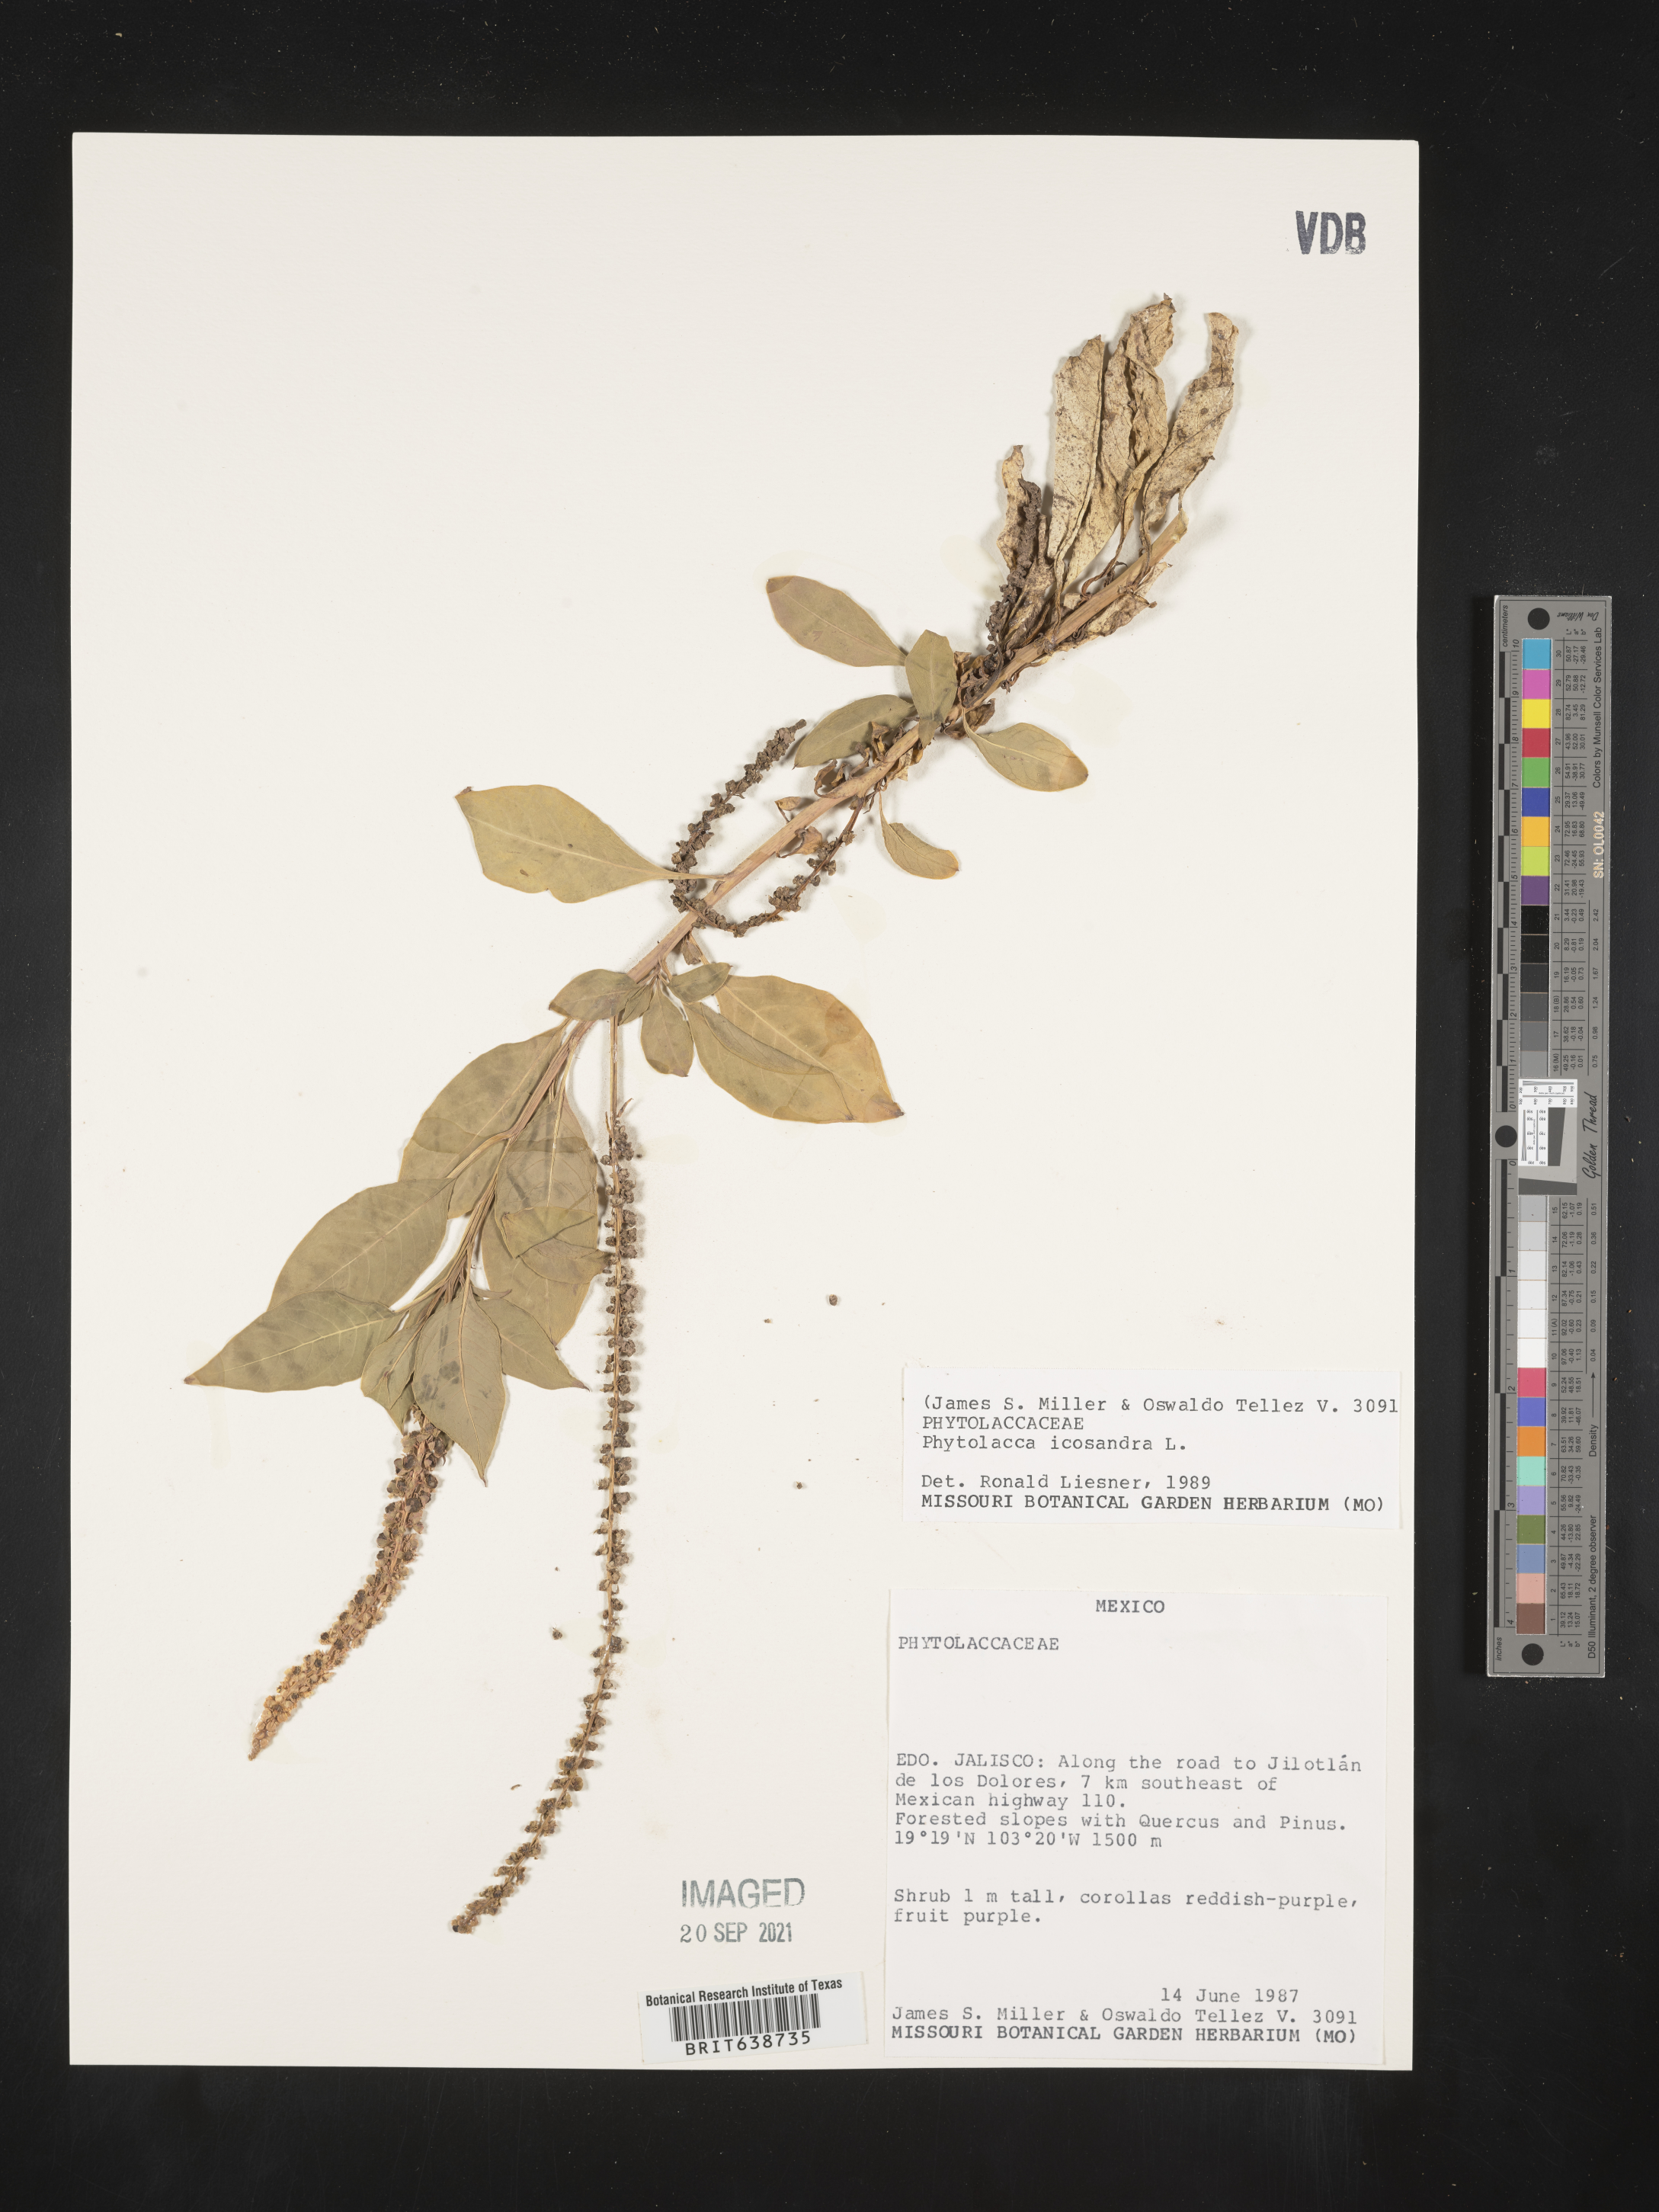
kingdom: Plantae
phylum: Tracheophyta
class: Magnoliopsida
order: Caryophyllales
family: Phytolaccaceae
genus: Phytolacca
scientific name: Phytolacca
